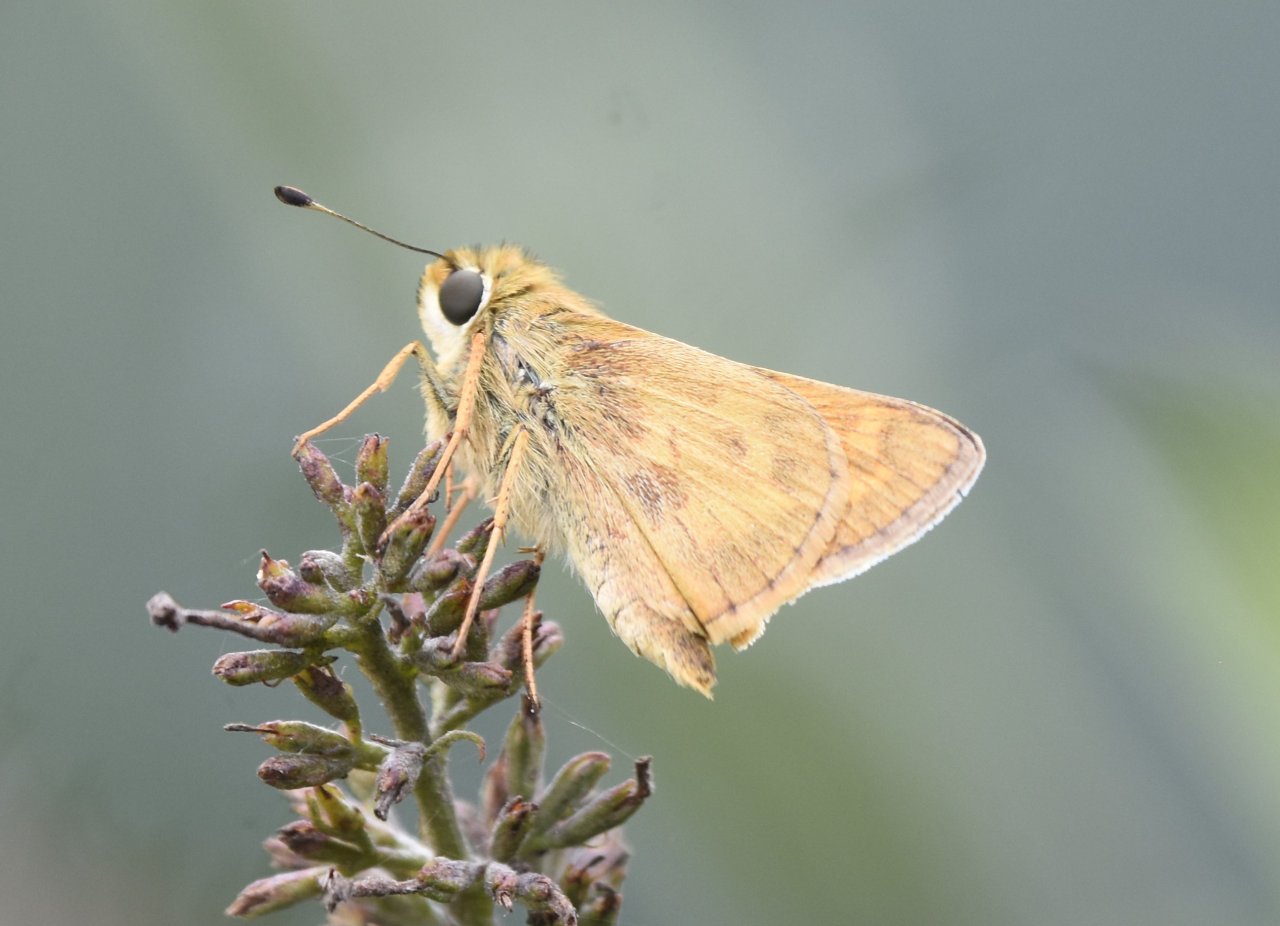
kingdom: Animalia
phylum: Arthropoda
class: Insecta
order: Lepidoptera
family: Hesperiidae
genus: Atalopedes
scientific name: Atalopedes campestris
